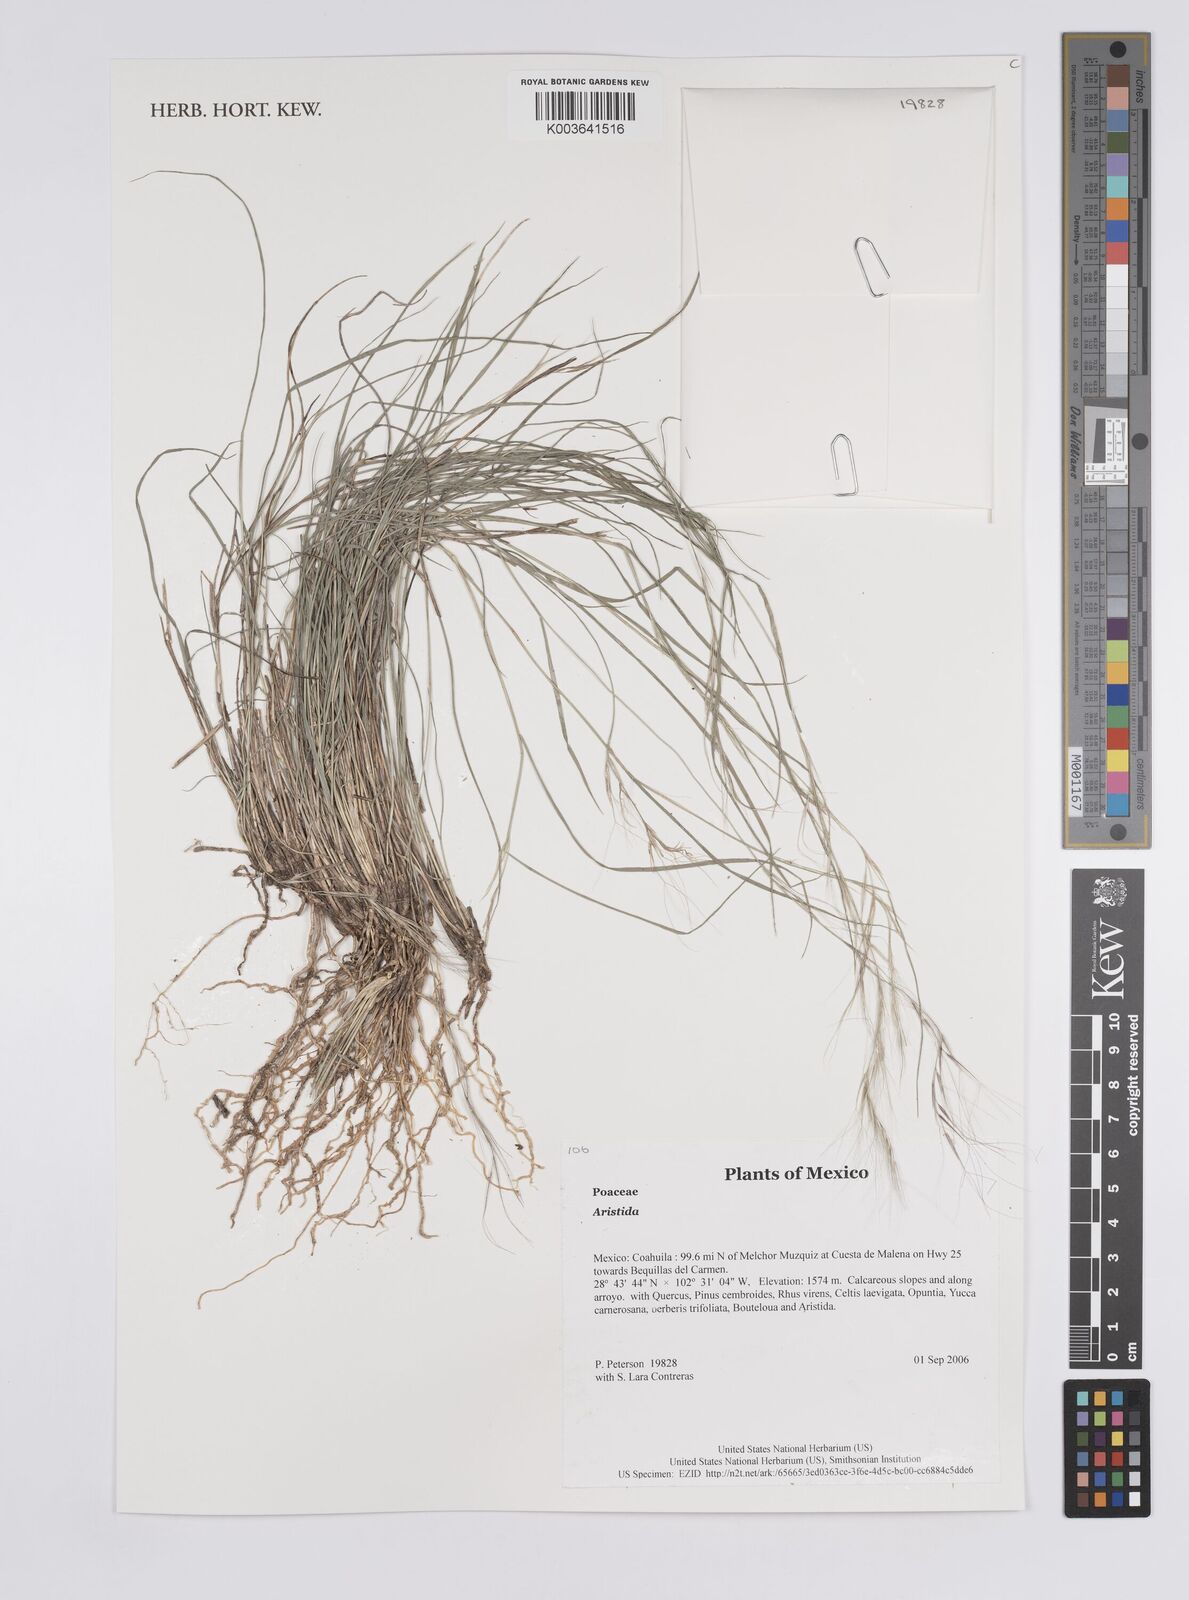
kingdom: Plantae
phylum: Tracheophyta
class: Liliopsida
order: Poales
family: Poaceae
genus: Aristida
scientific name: Aristida
